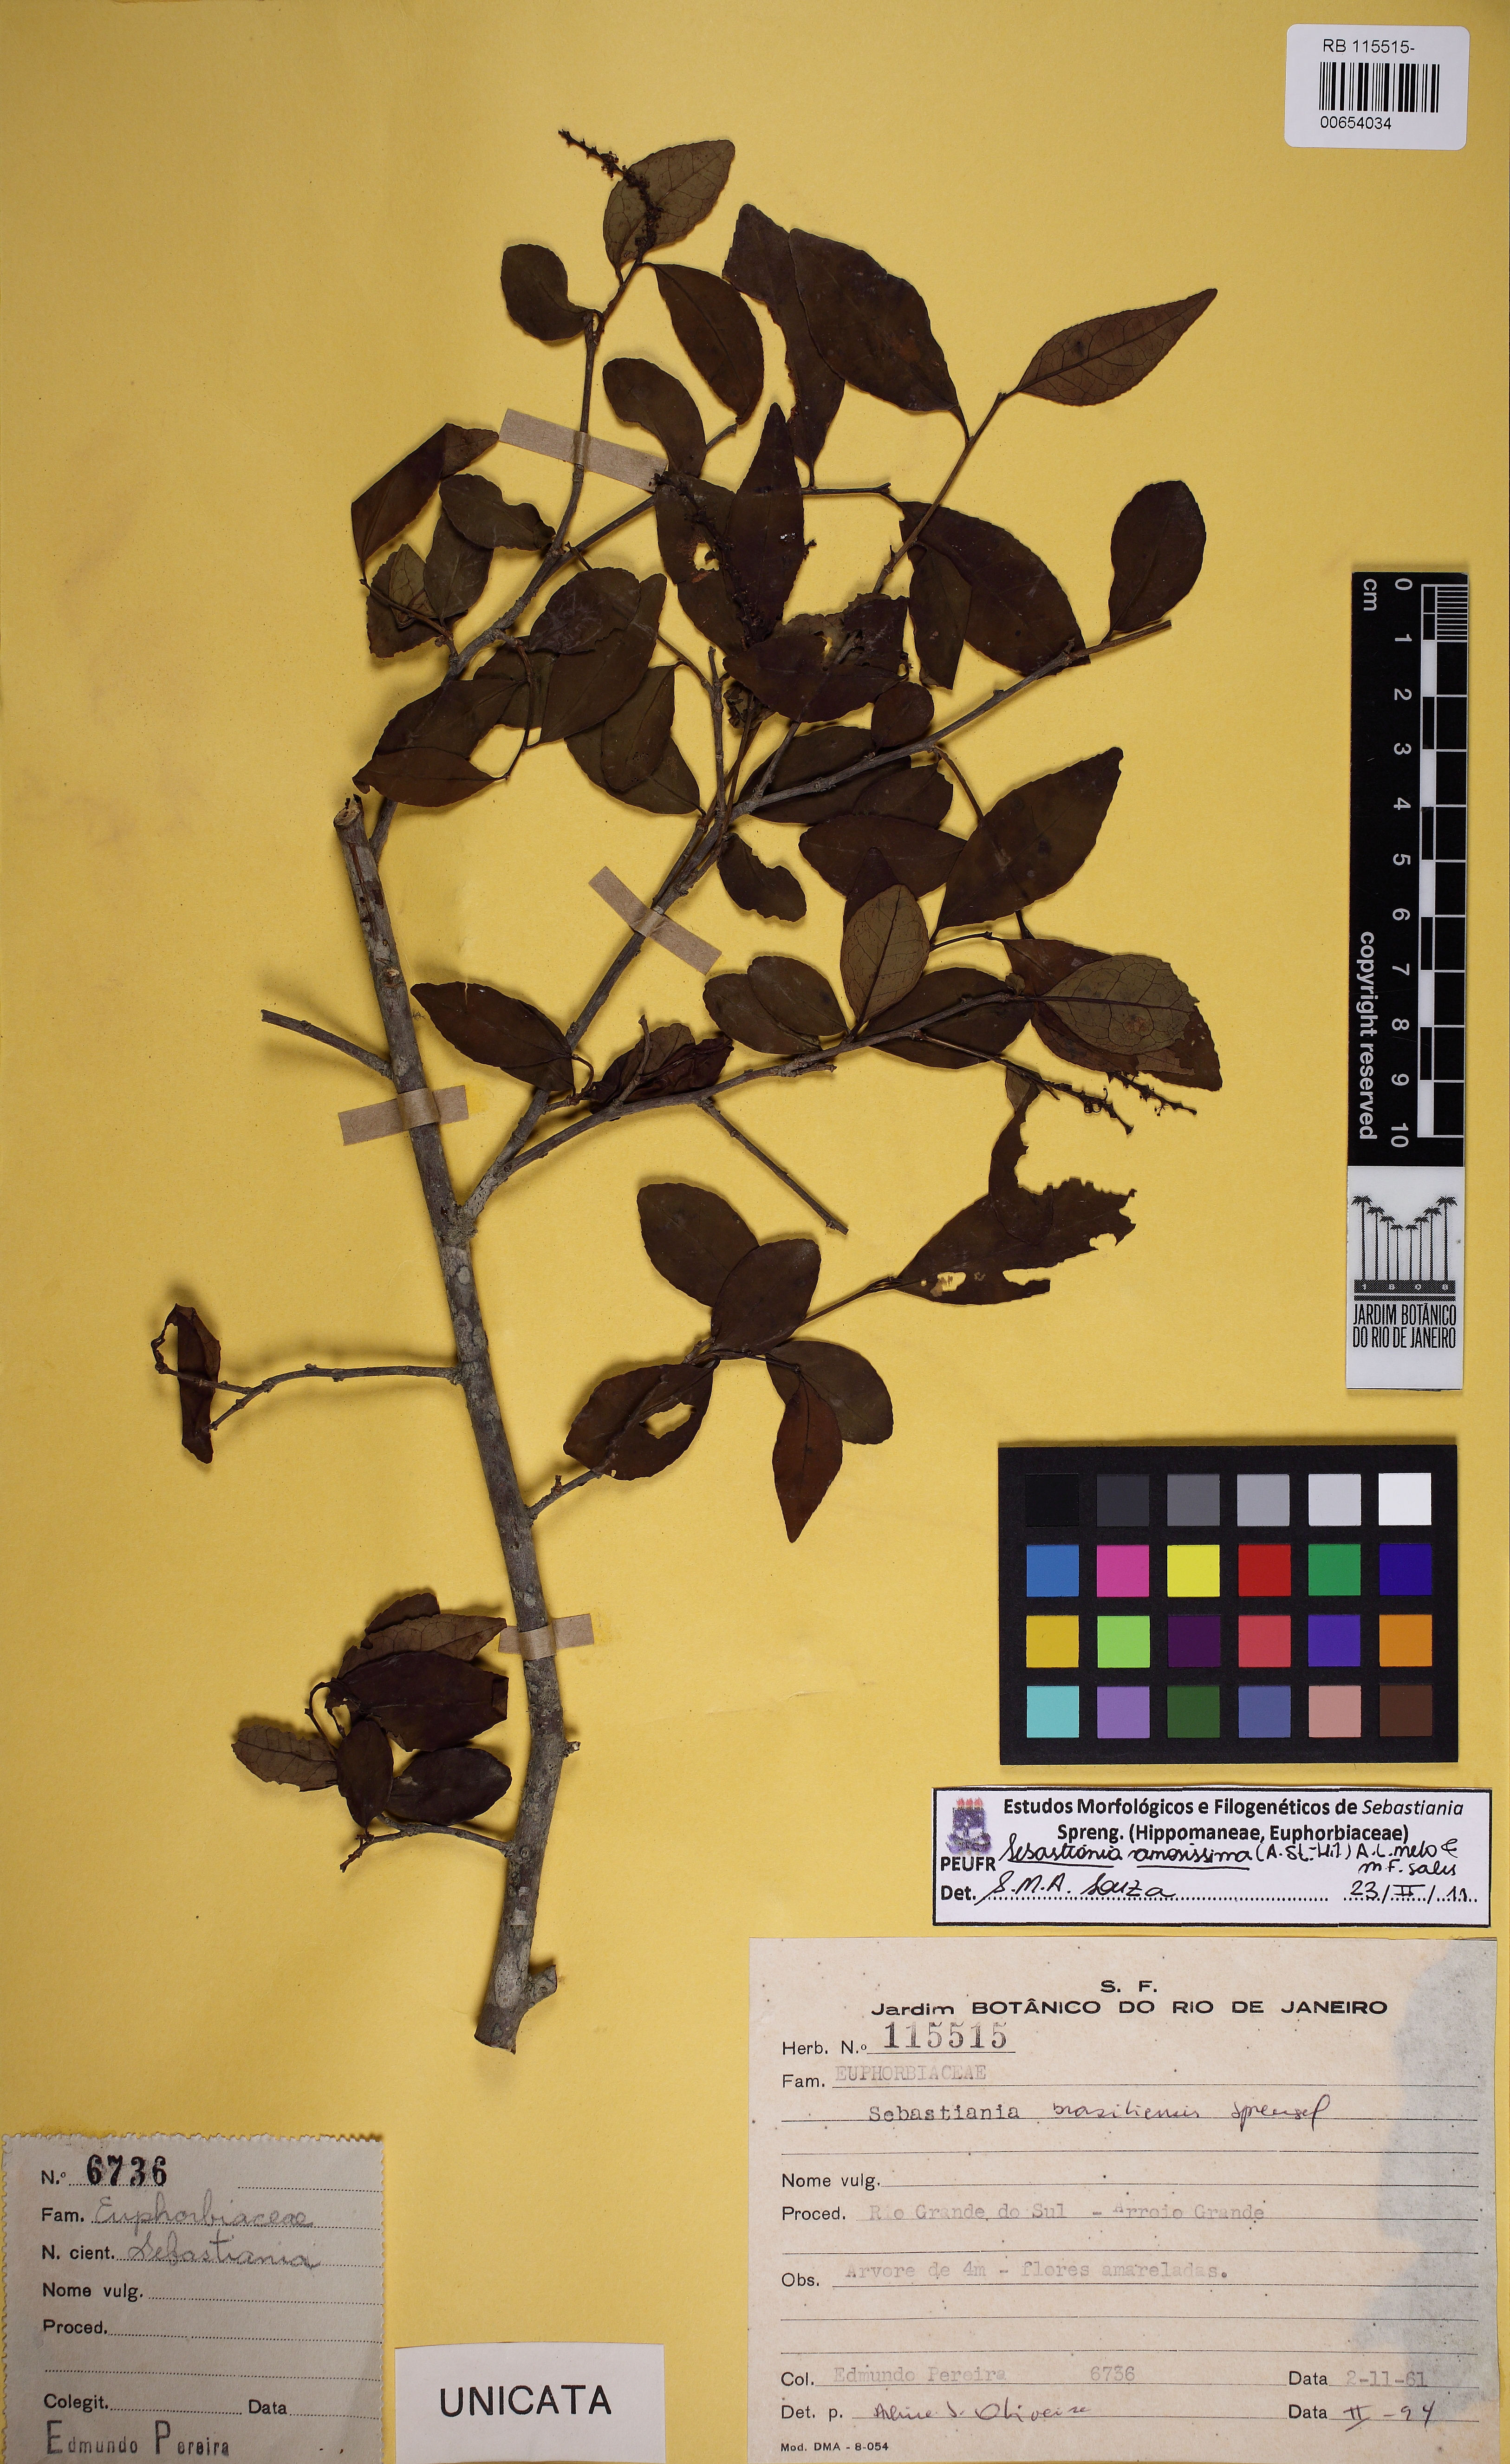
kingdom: Plantae
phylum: Tracheophyta
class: Magnoliopsida
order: Malpighiales
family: Euphorbiaceae
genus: Sebastiania
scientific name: Sebastiania ramosissima
